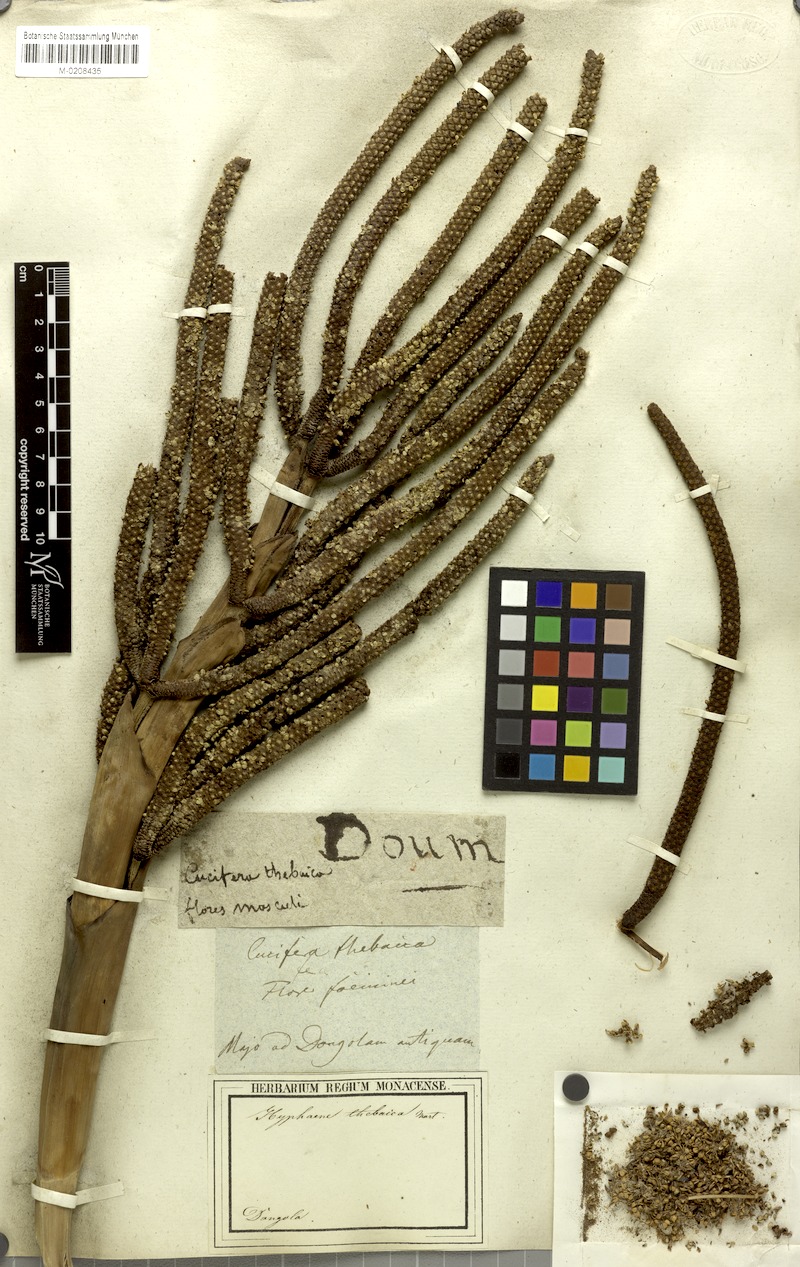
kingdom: Plantae
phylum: Tracheophyta
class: Liliopsida
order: Arecales
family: Arecaceae
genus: Hyphaene
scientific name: Hyphaene thebaica
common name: Doum palm
